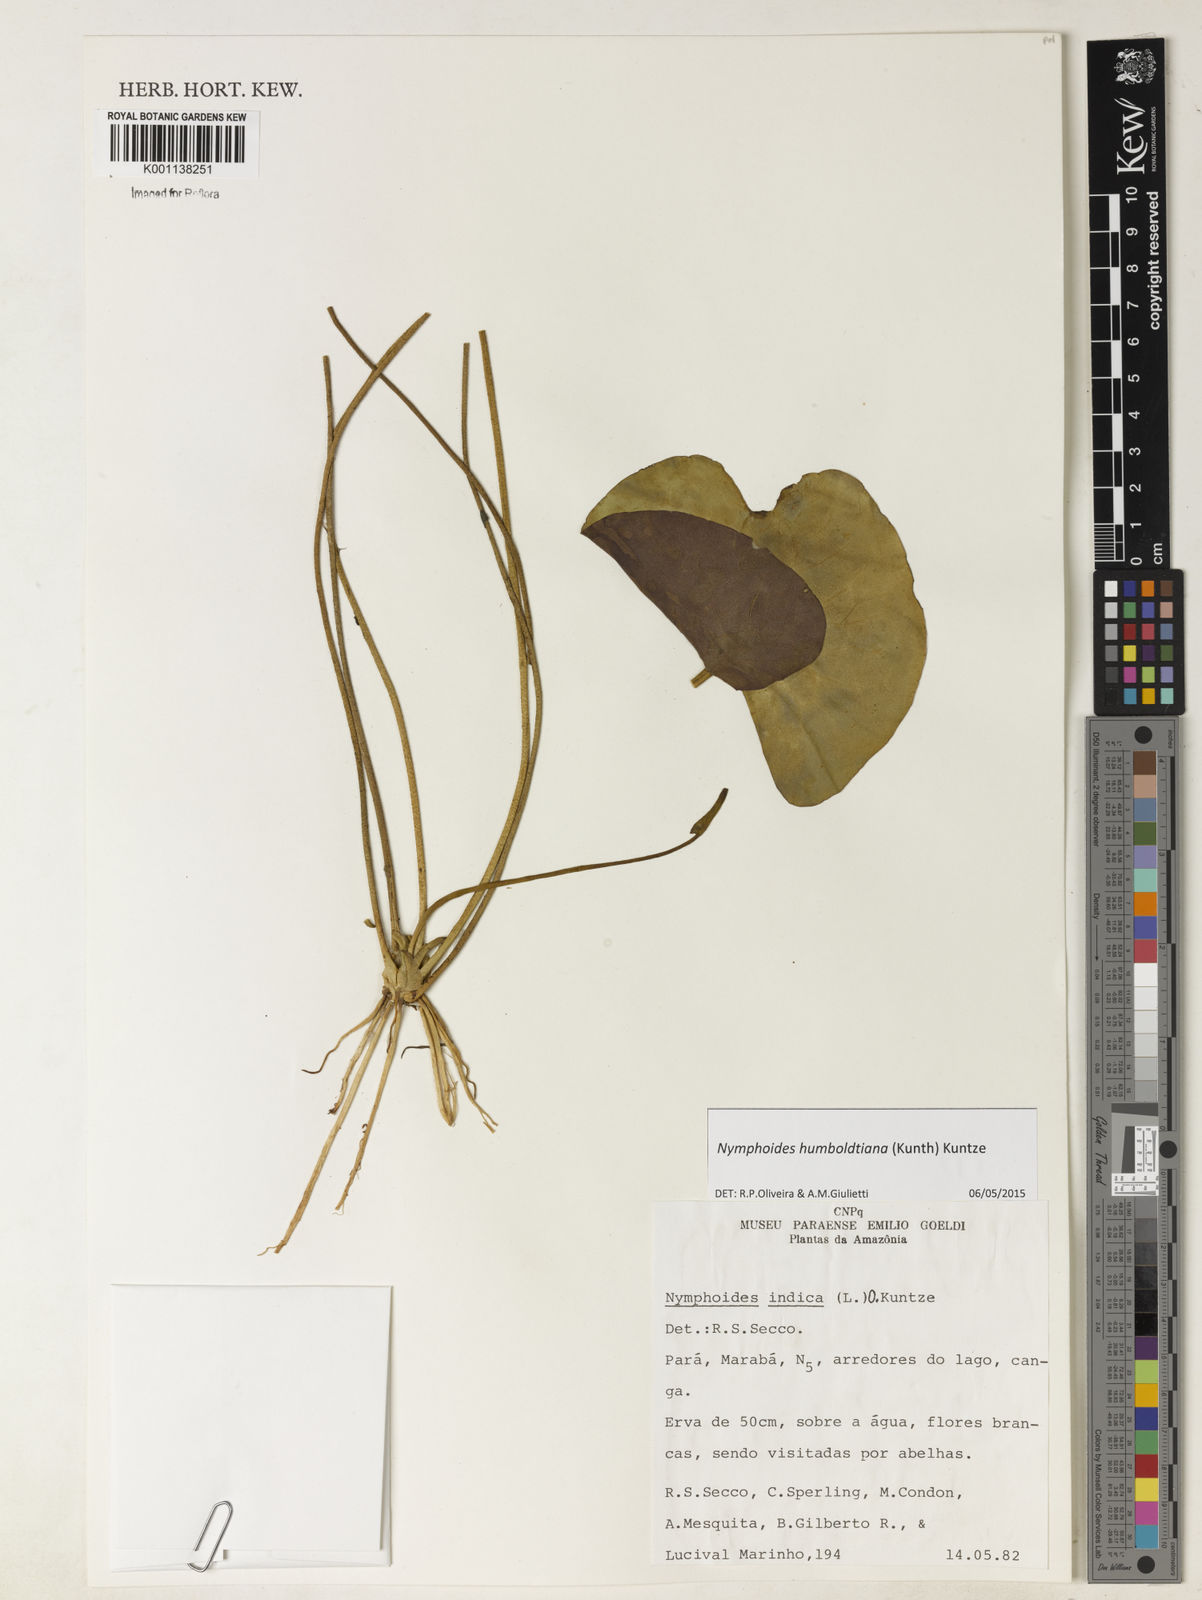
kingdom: Plantae
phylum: Tracheophyta
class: Magnoliopsida
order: Asterales
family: Menyanthaceae
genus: Nymphoides
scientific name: Nymphoides humboldtiana
